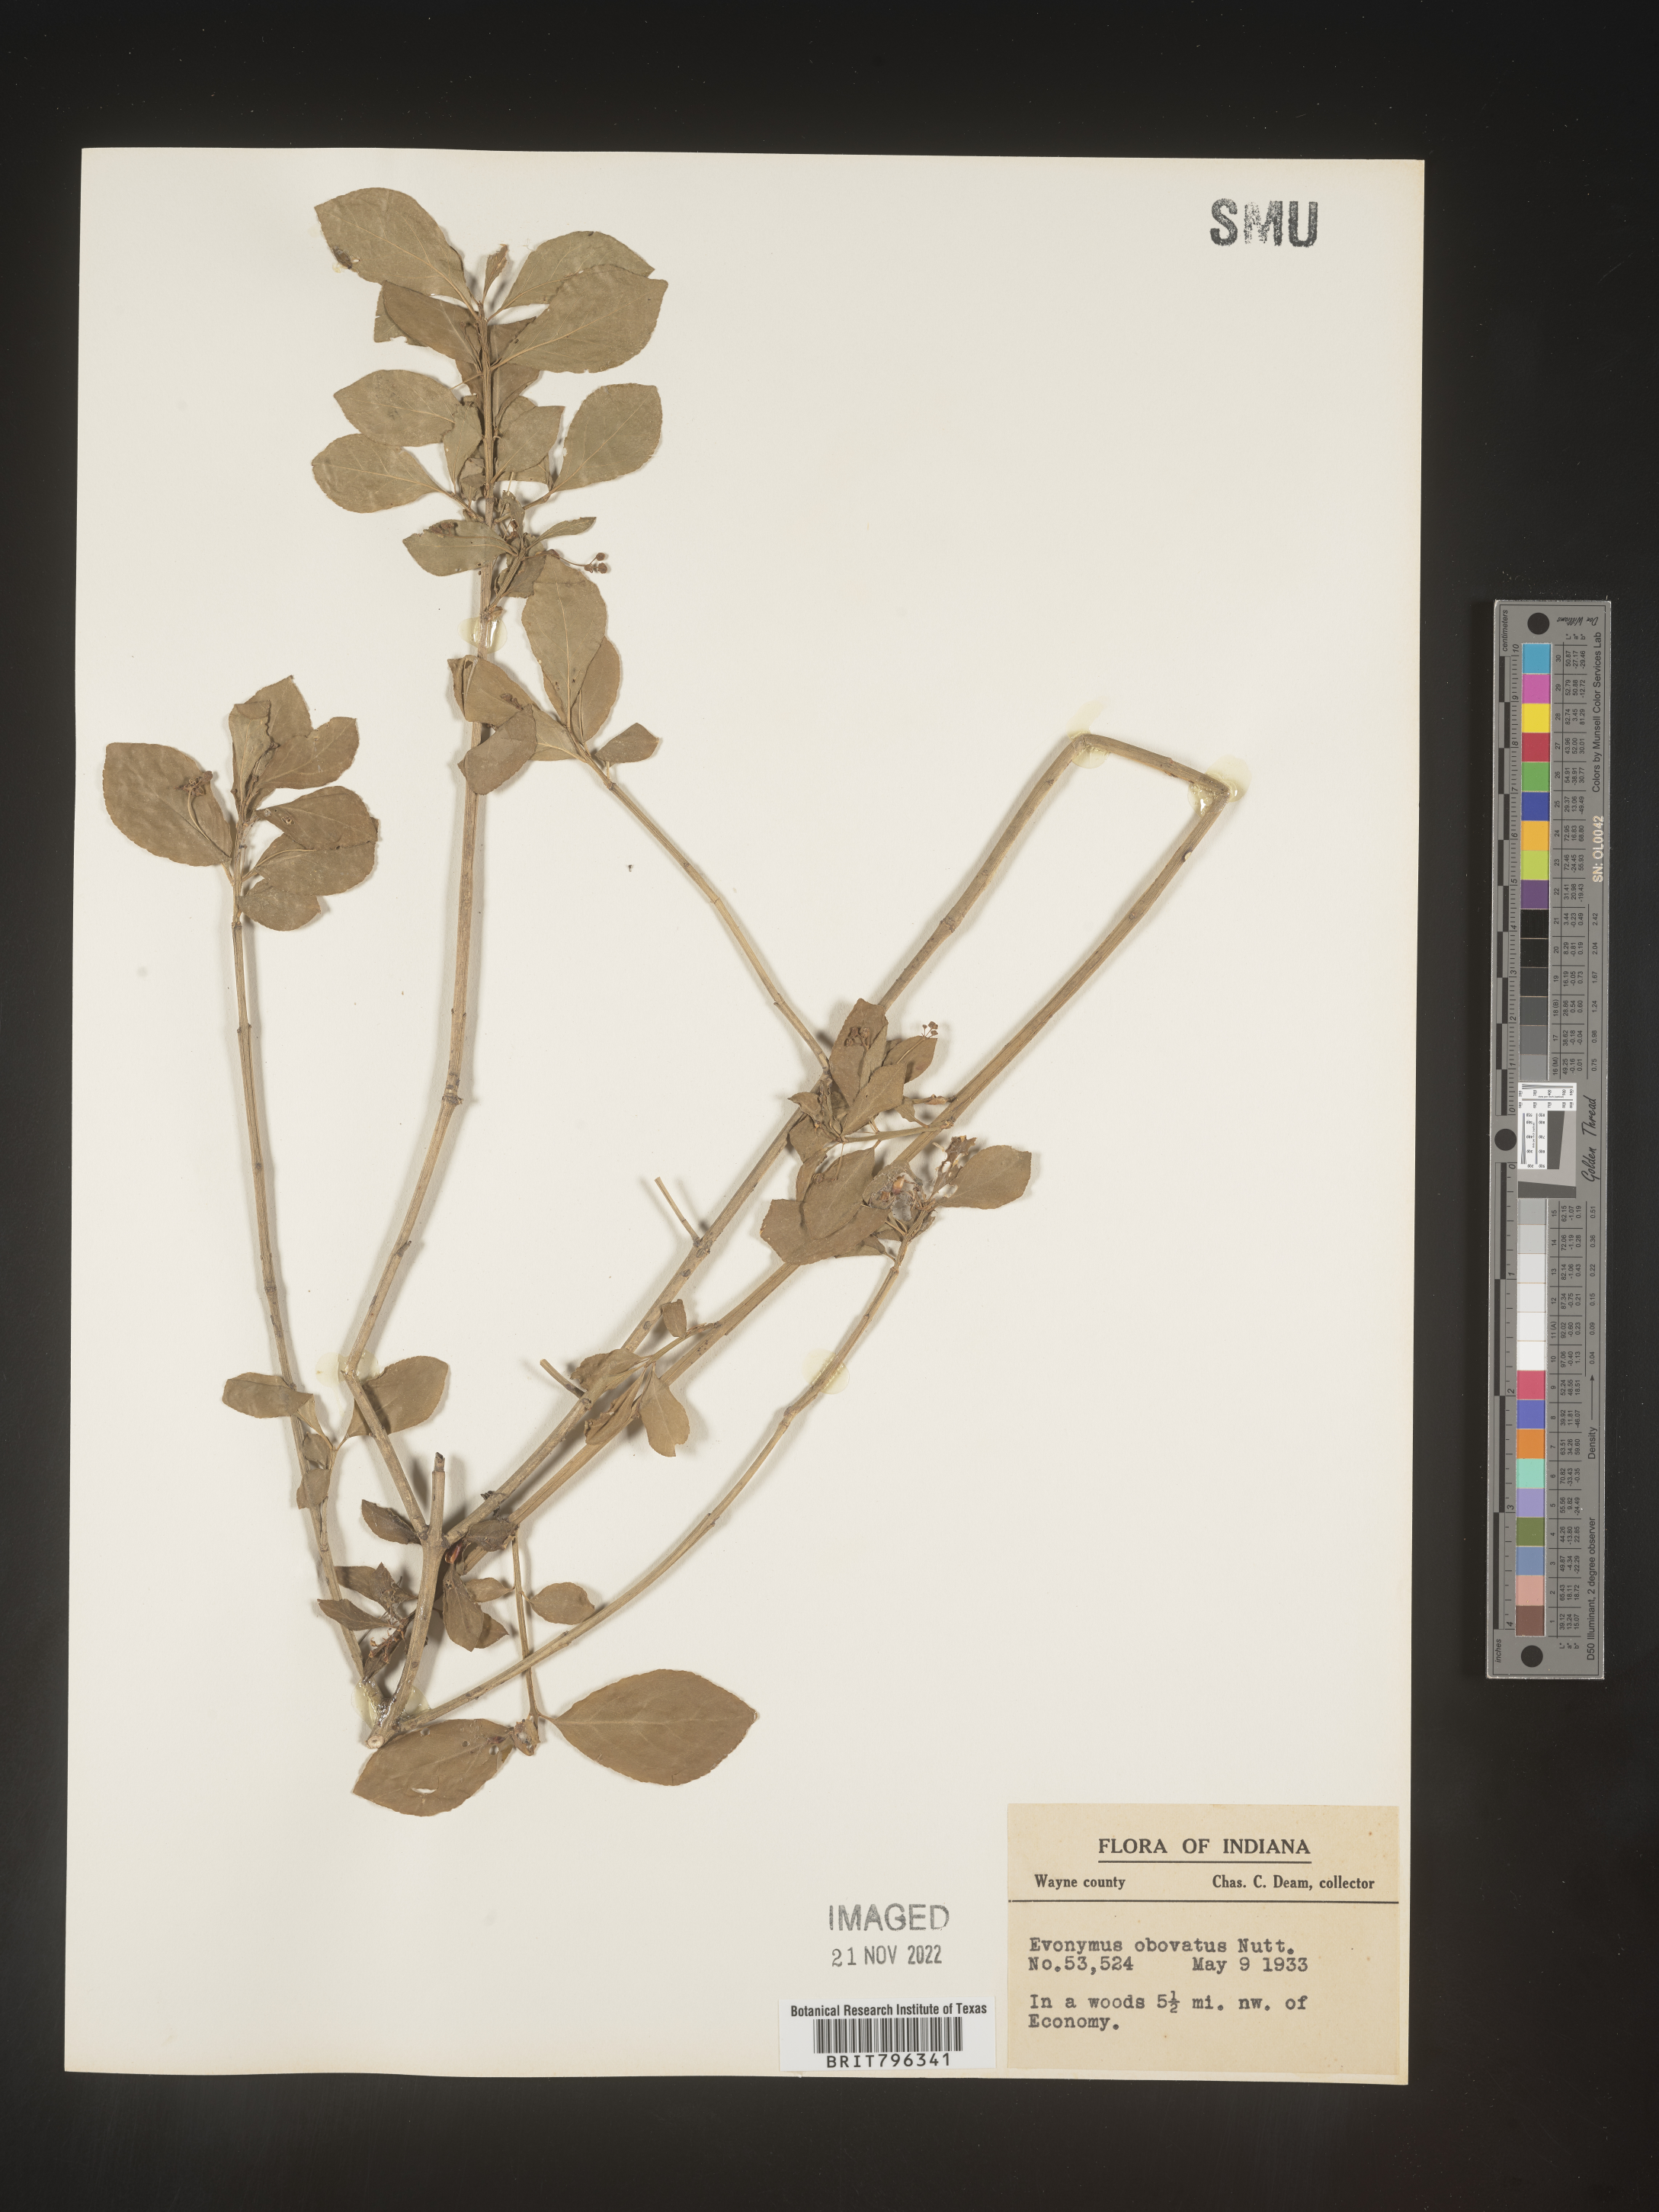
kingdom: Plantae
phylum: Tracheophyta
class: Magnoliopsida
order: Celastrales
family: Celastraceae
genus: Euonymus
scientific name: Euonymus obovatus
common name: Running strawberry-bush
